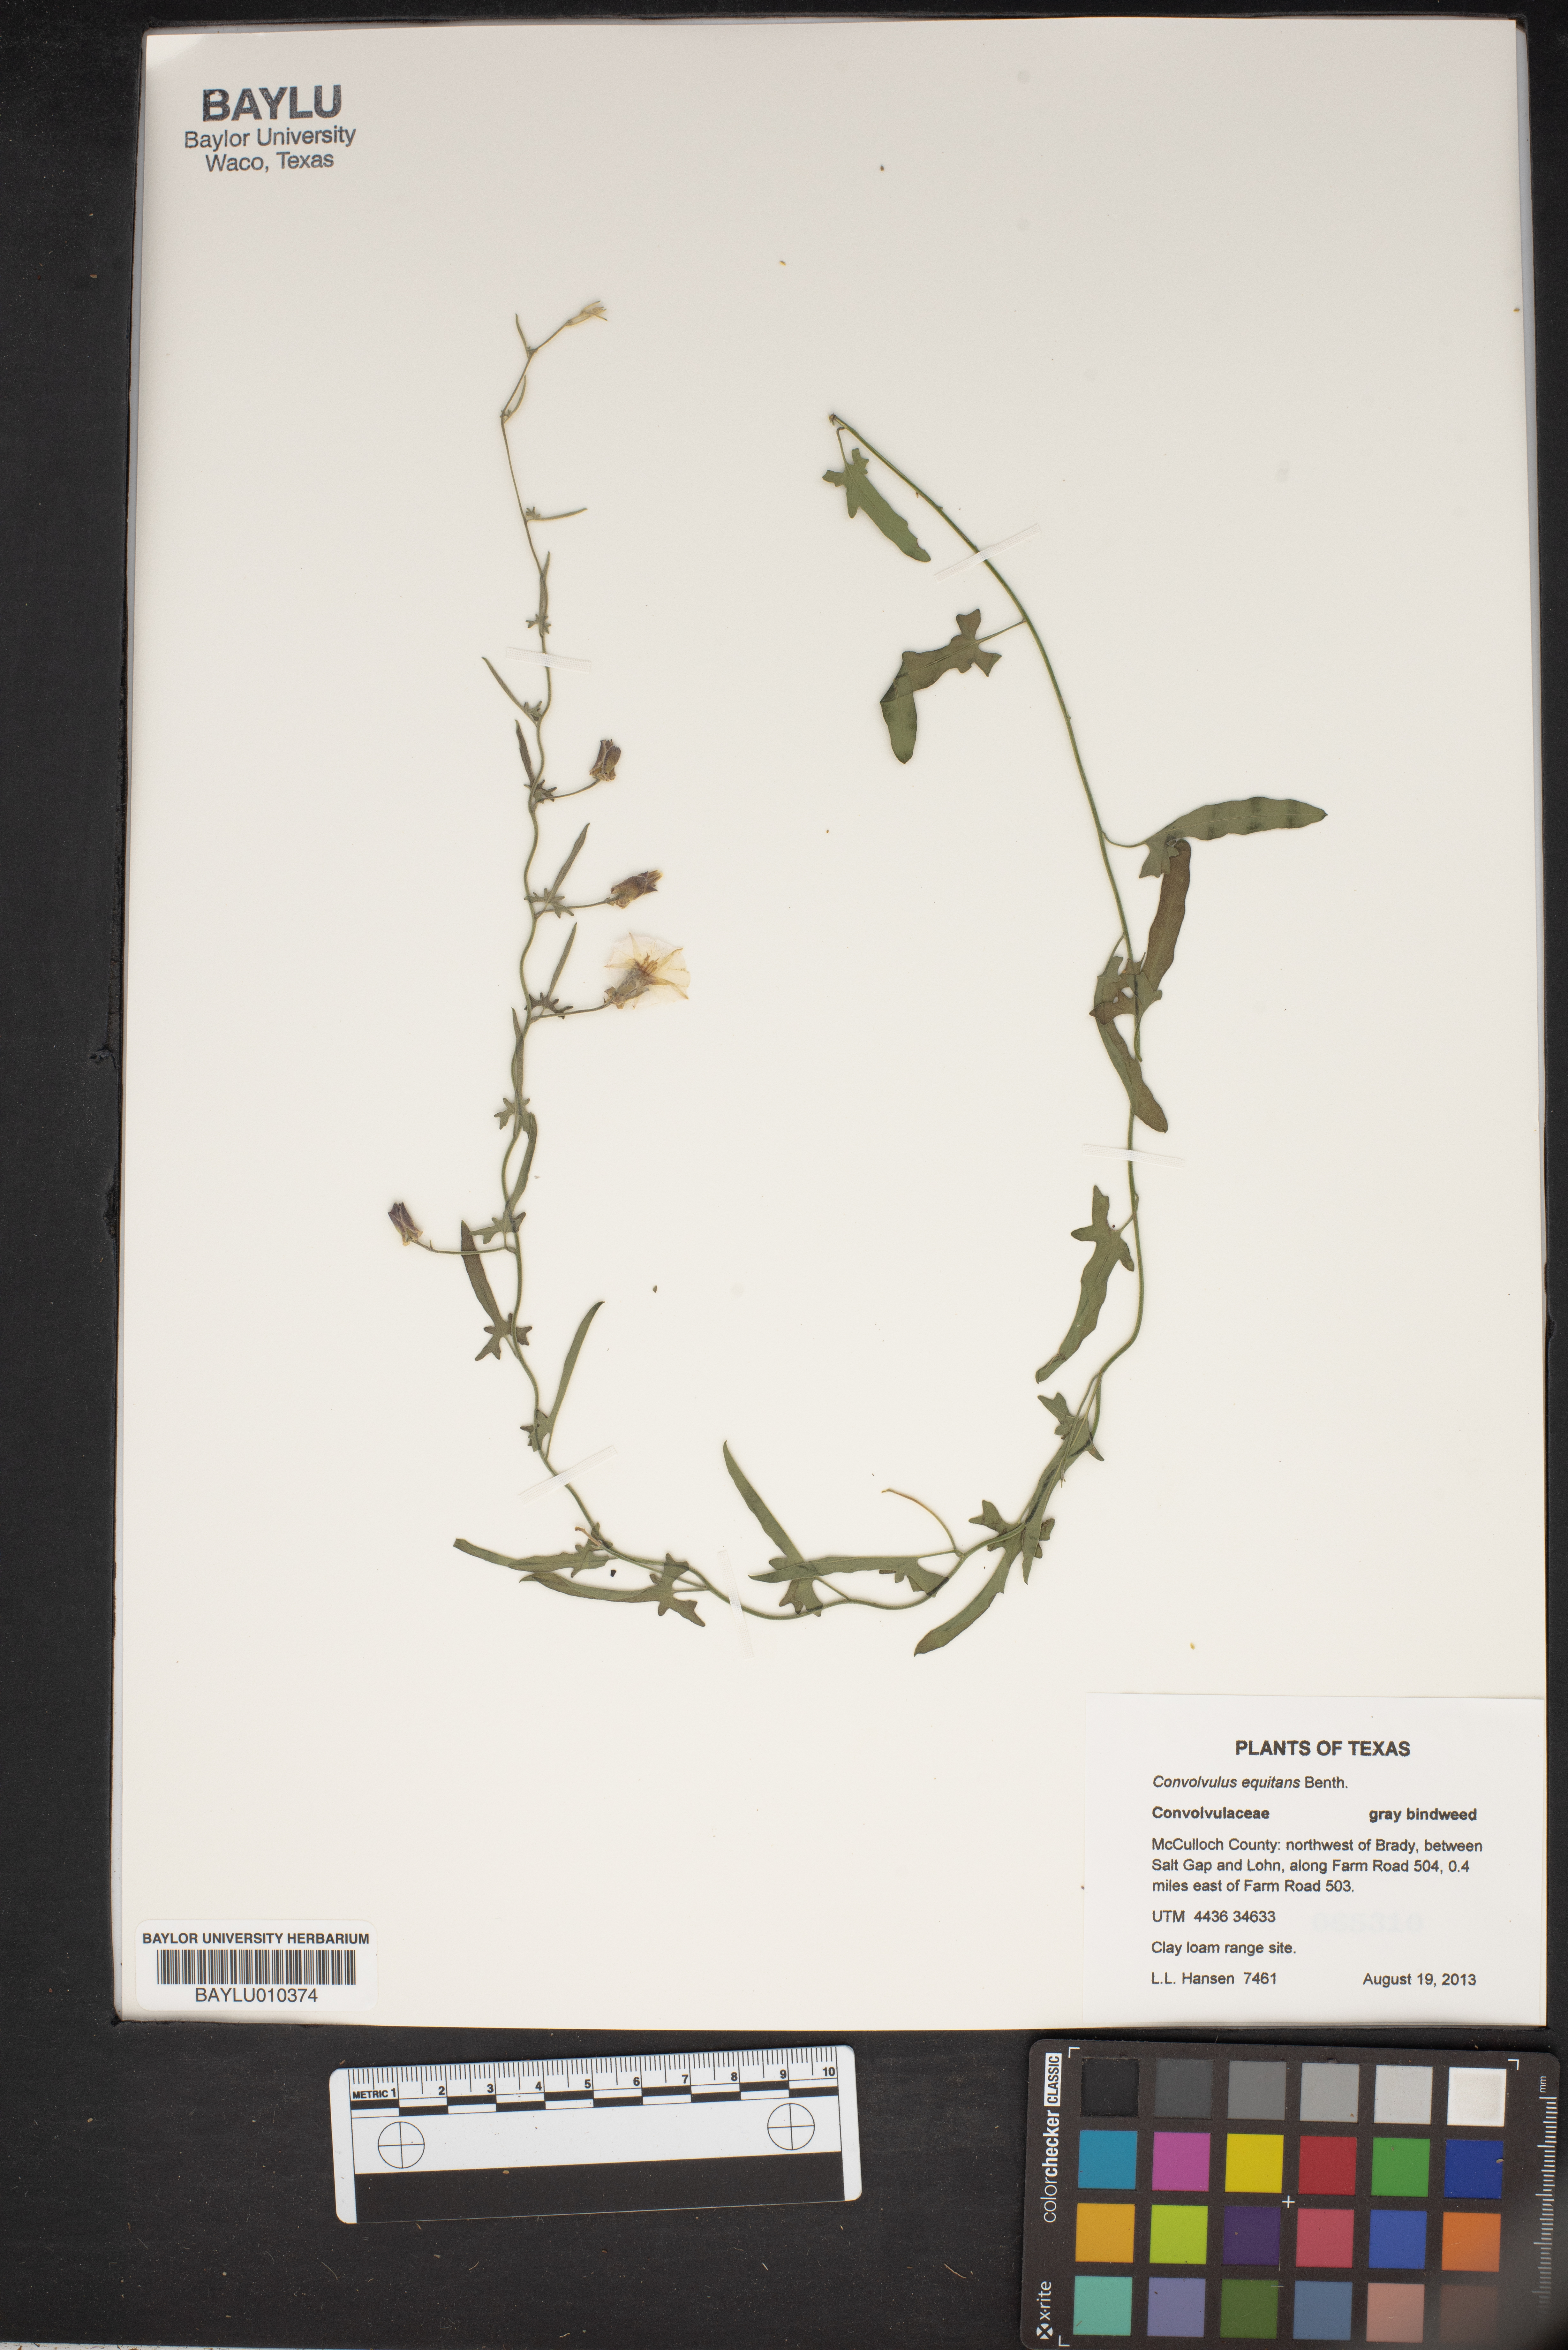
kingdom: Plantae
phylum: Tracheophyta
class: Magnoliopsida
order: Solanales
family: Convolvulaceae
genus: Convolvulus
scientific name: Convolvulus equitans
